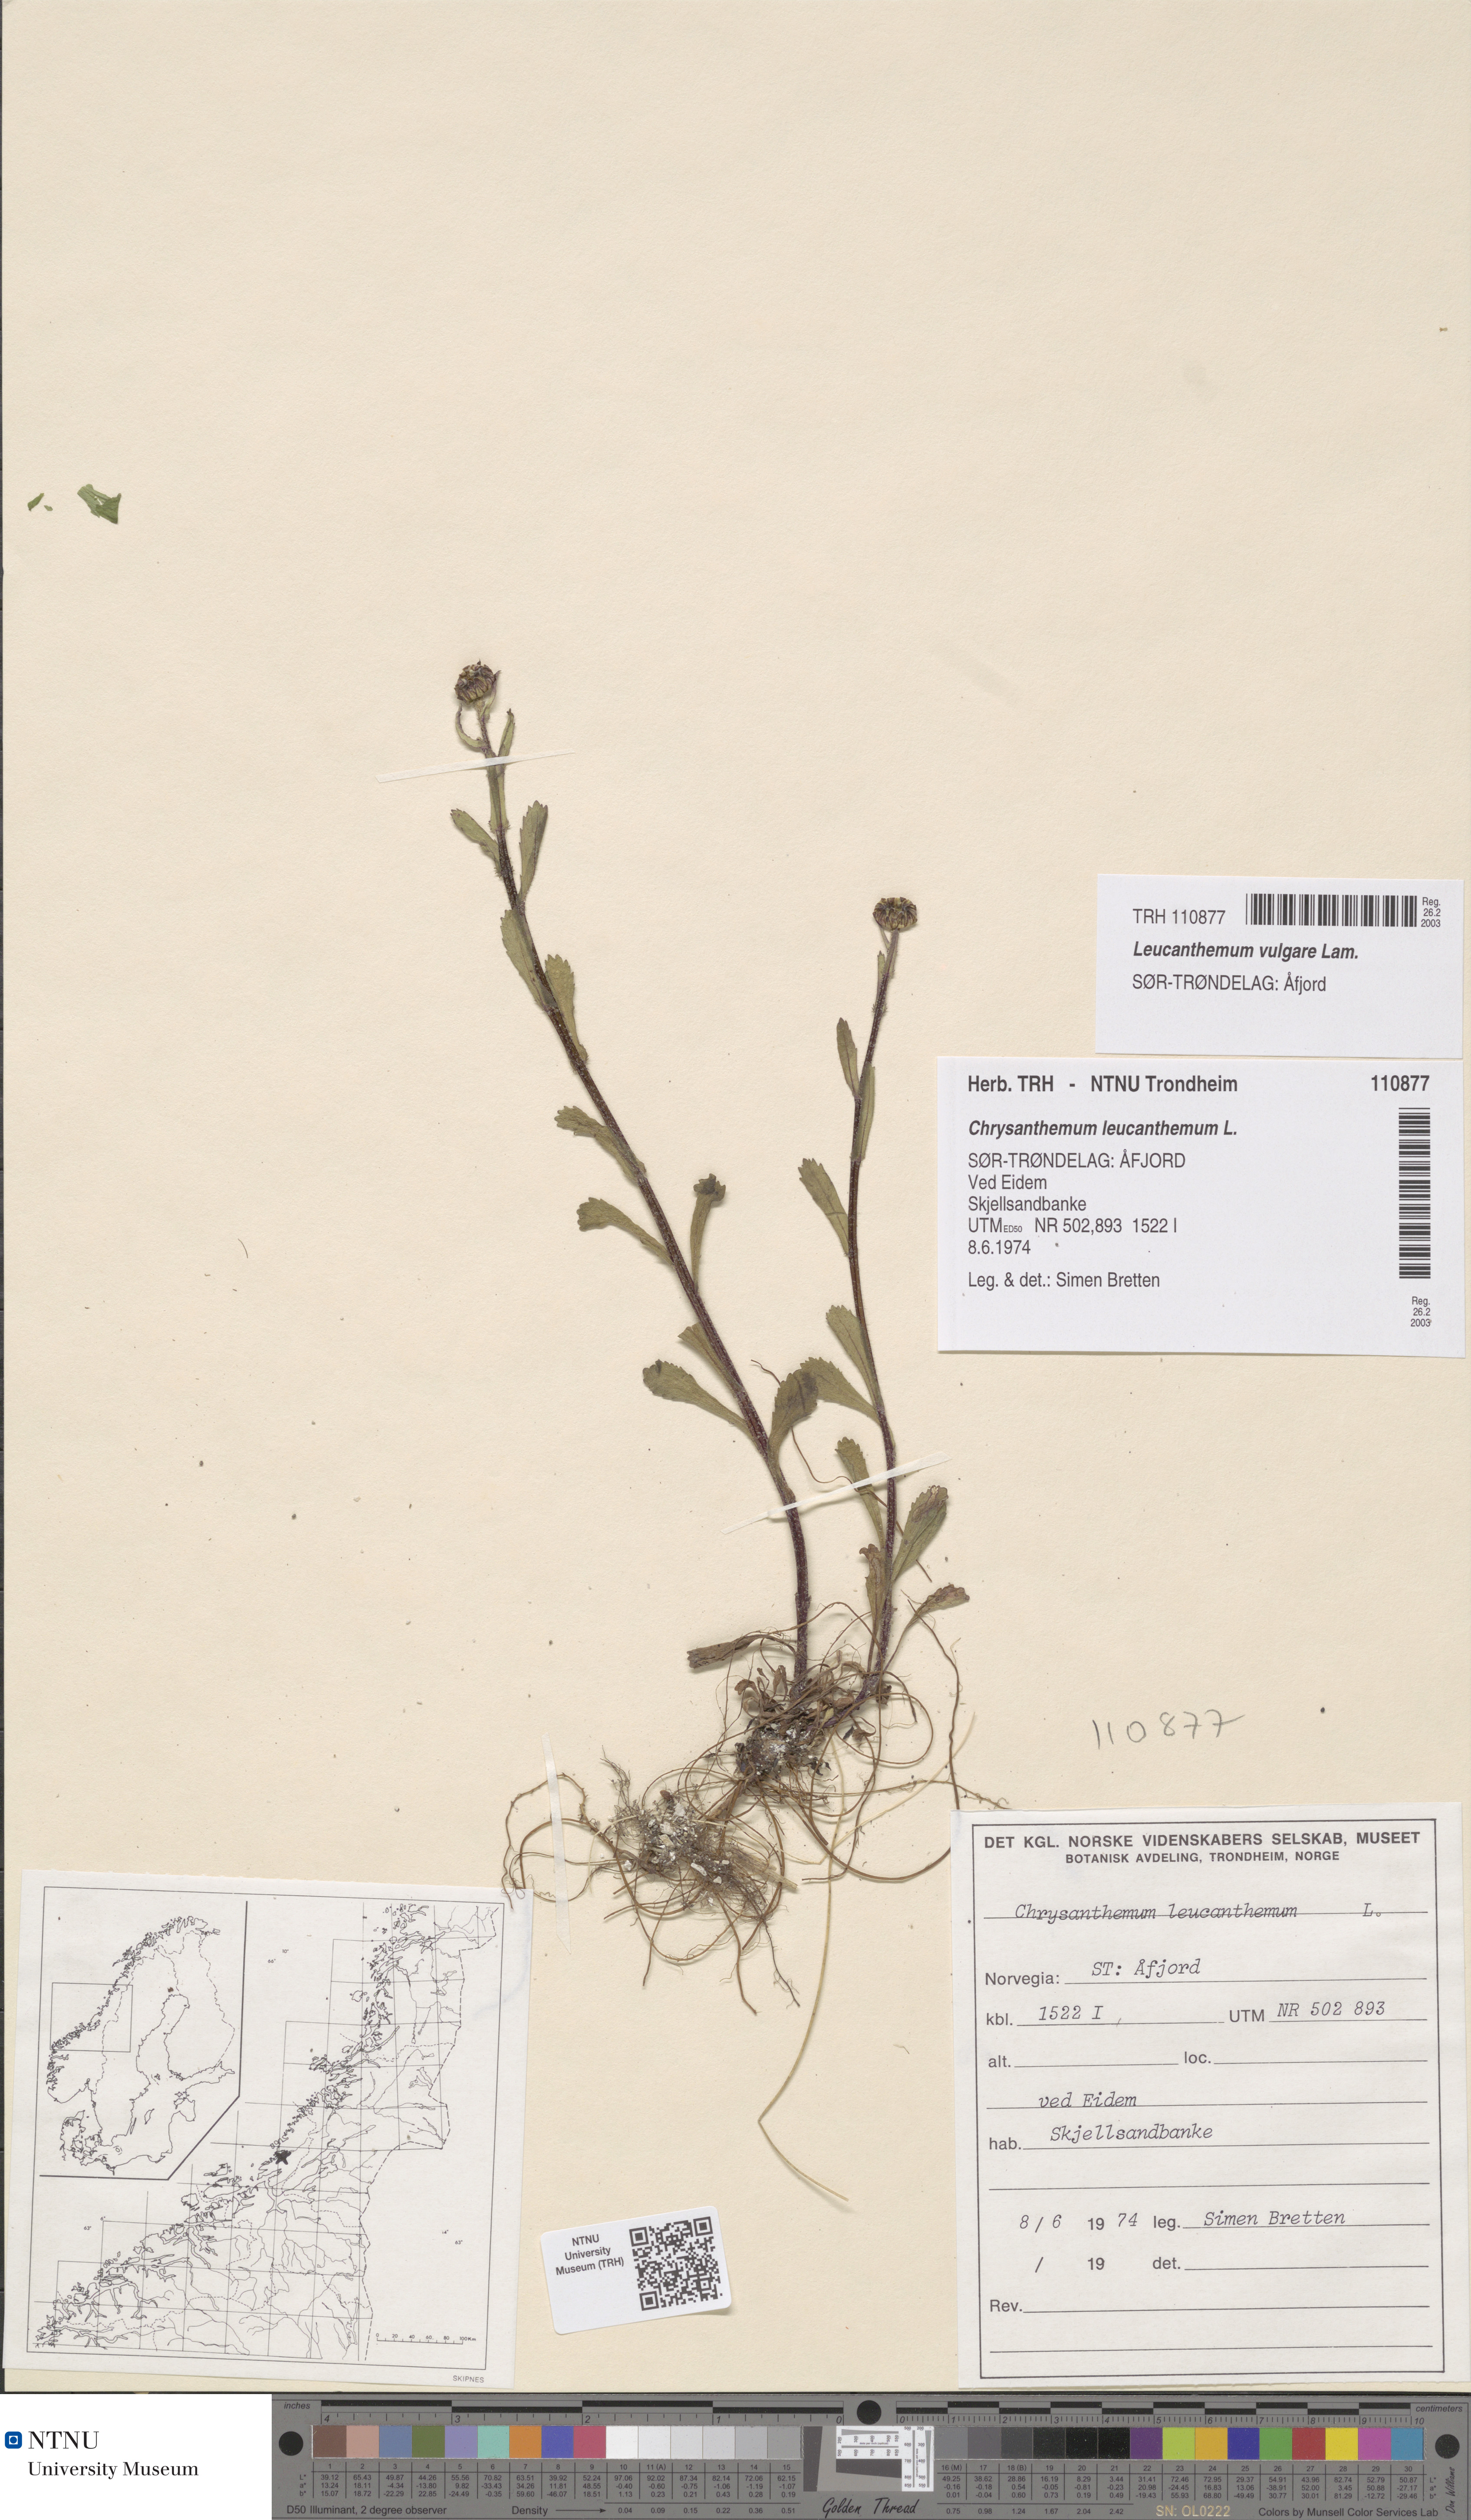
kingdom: Plantae
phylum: Tracheophyta
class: Magnoliopsida
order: Asterales
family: Asteraceae
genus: Leucanthemum
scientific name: Leucanthemum vulgare
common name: Oxeye daisy
